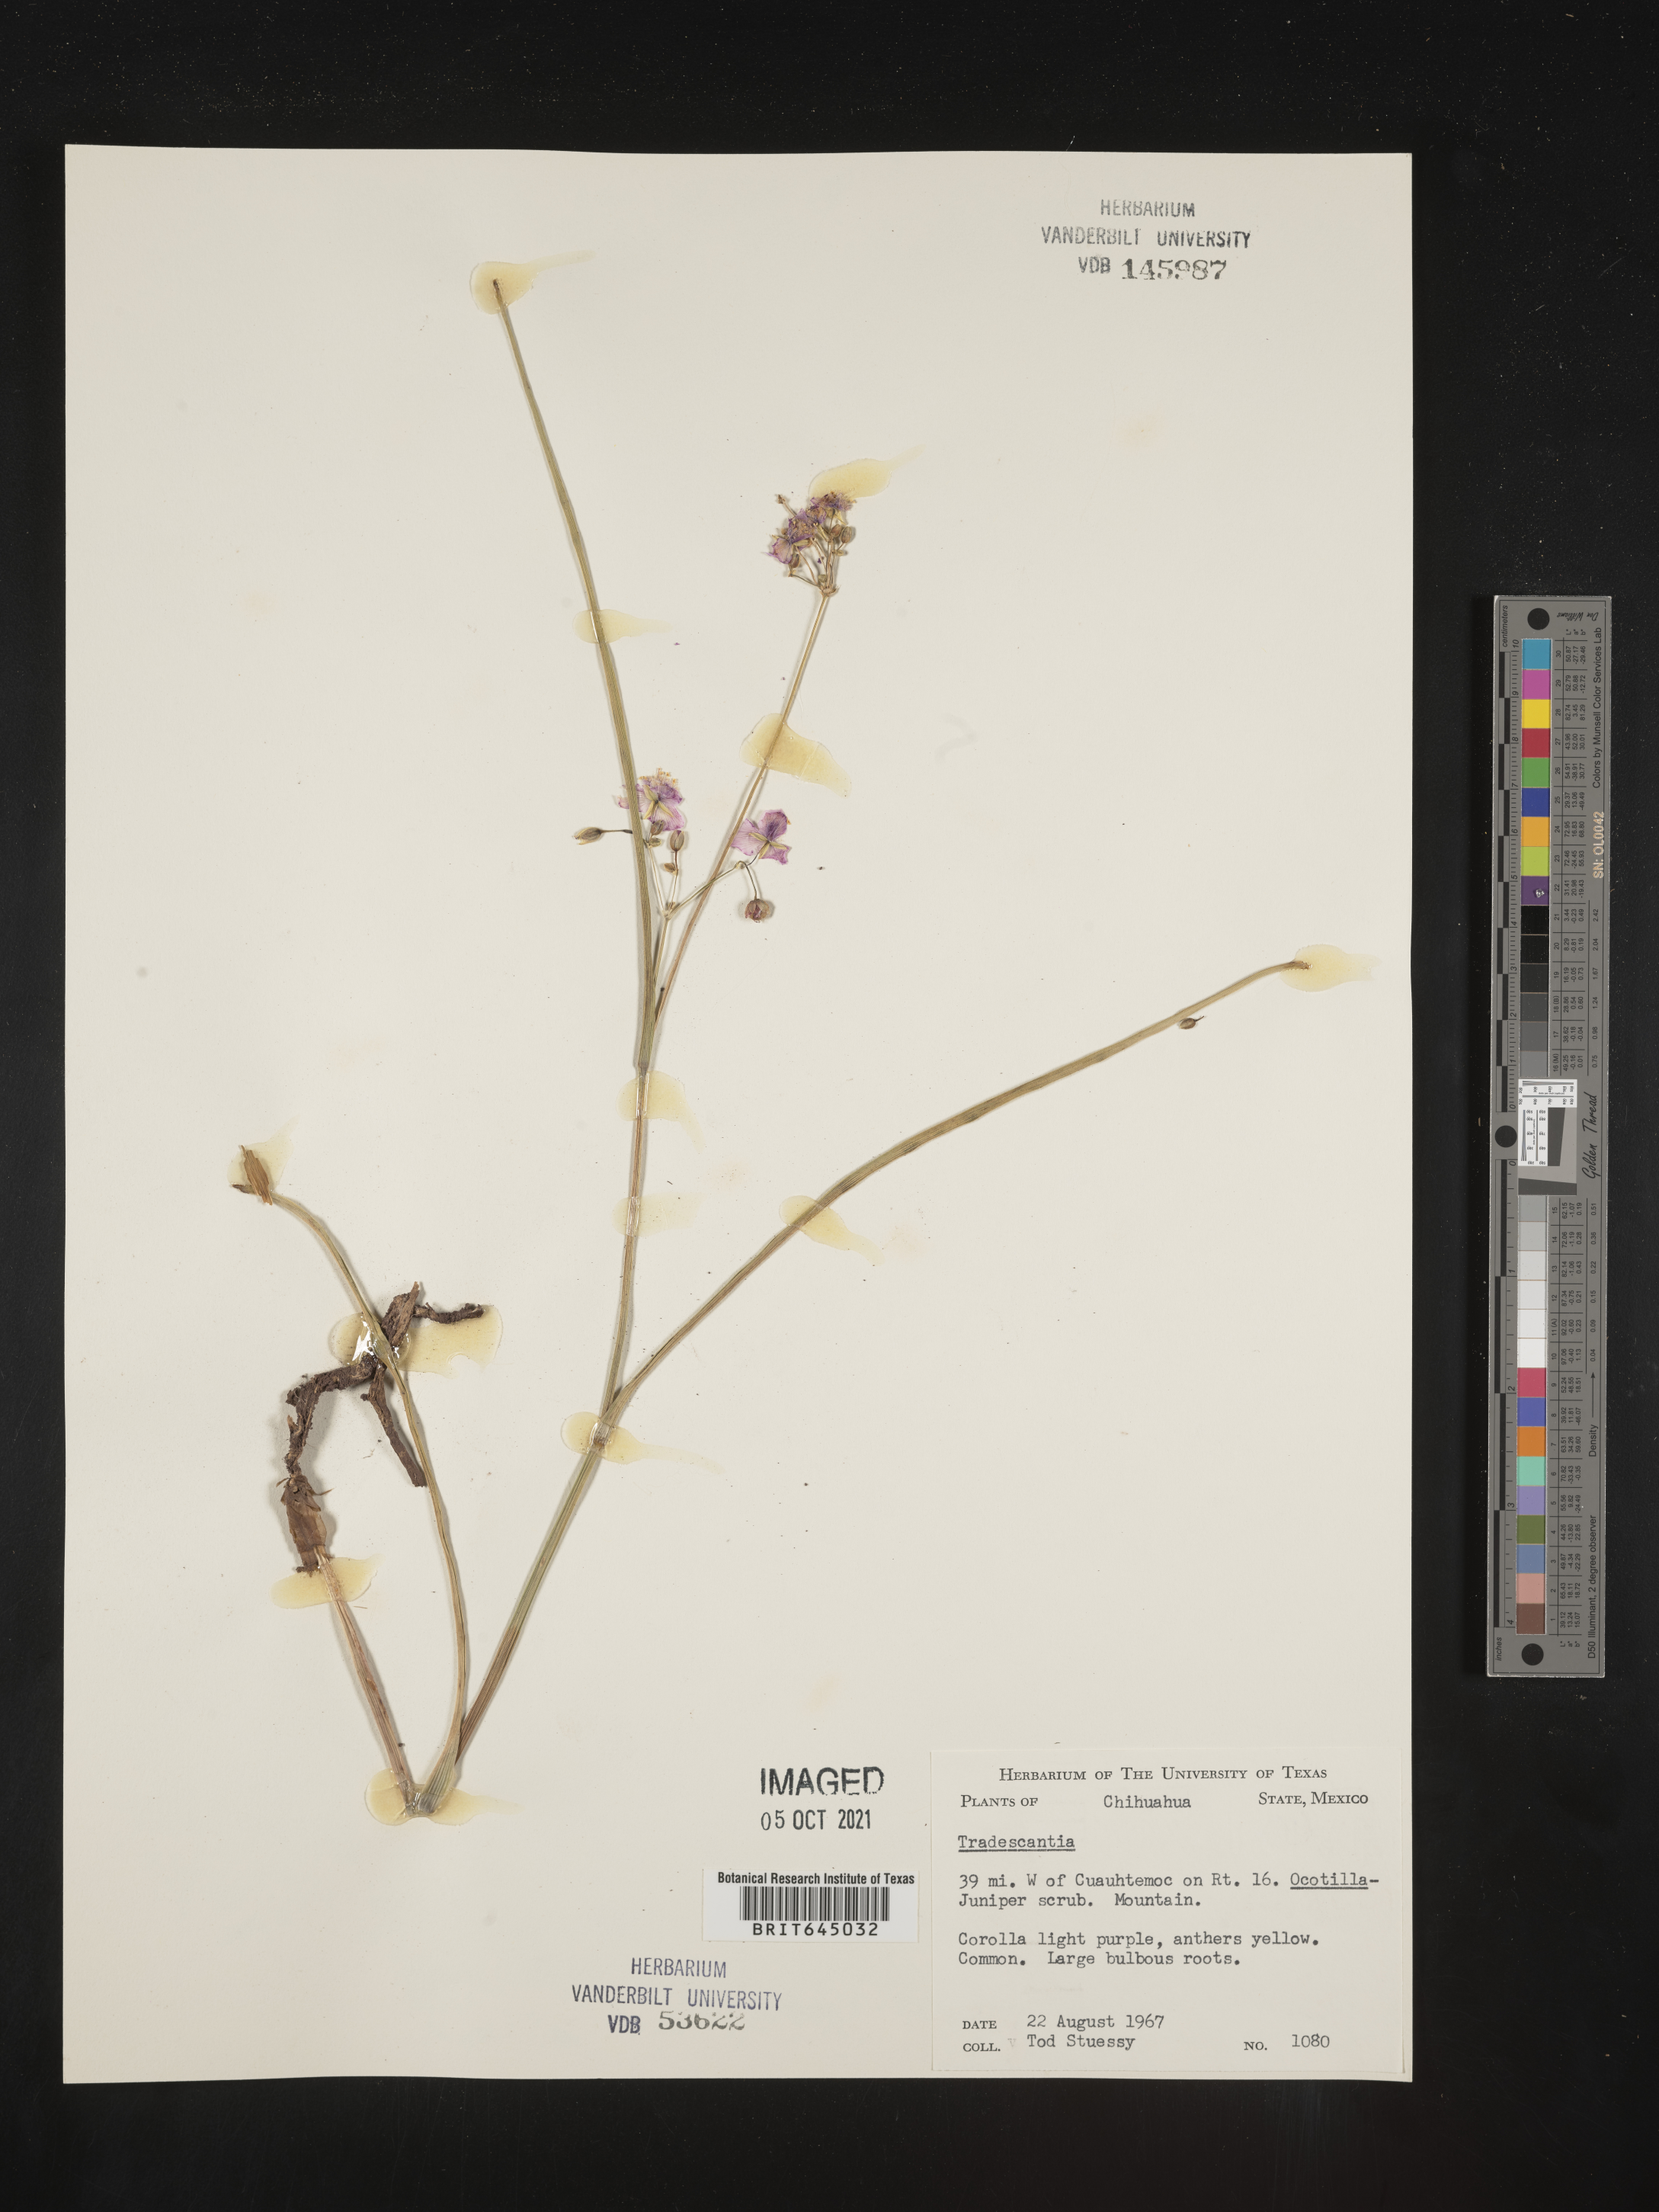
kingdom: Plantae
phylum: Tracheophyta
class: Liliopsida
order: Commelinales
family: Commelinaceae
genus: Tradescantia
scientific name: Tradescantia
